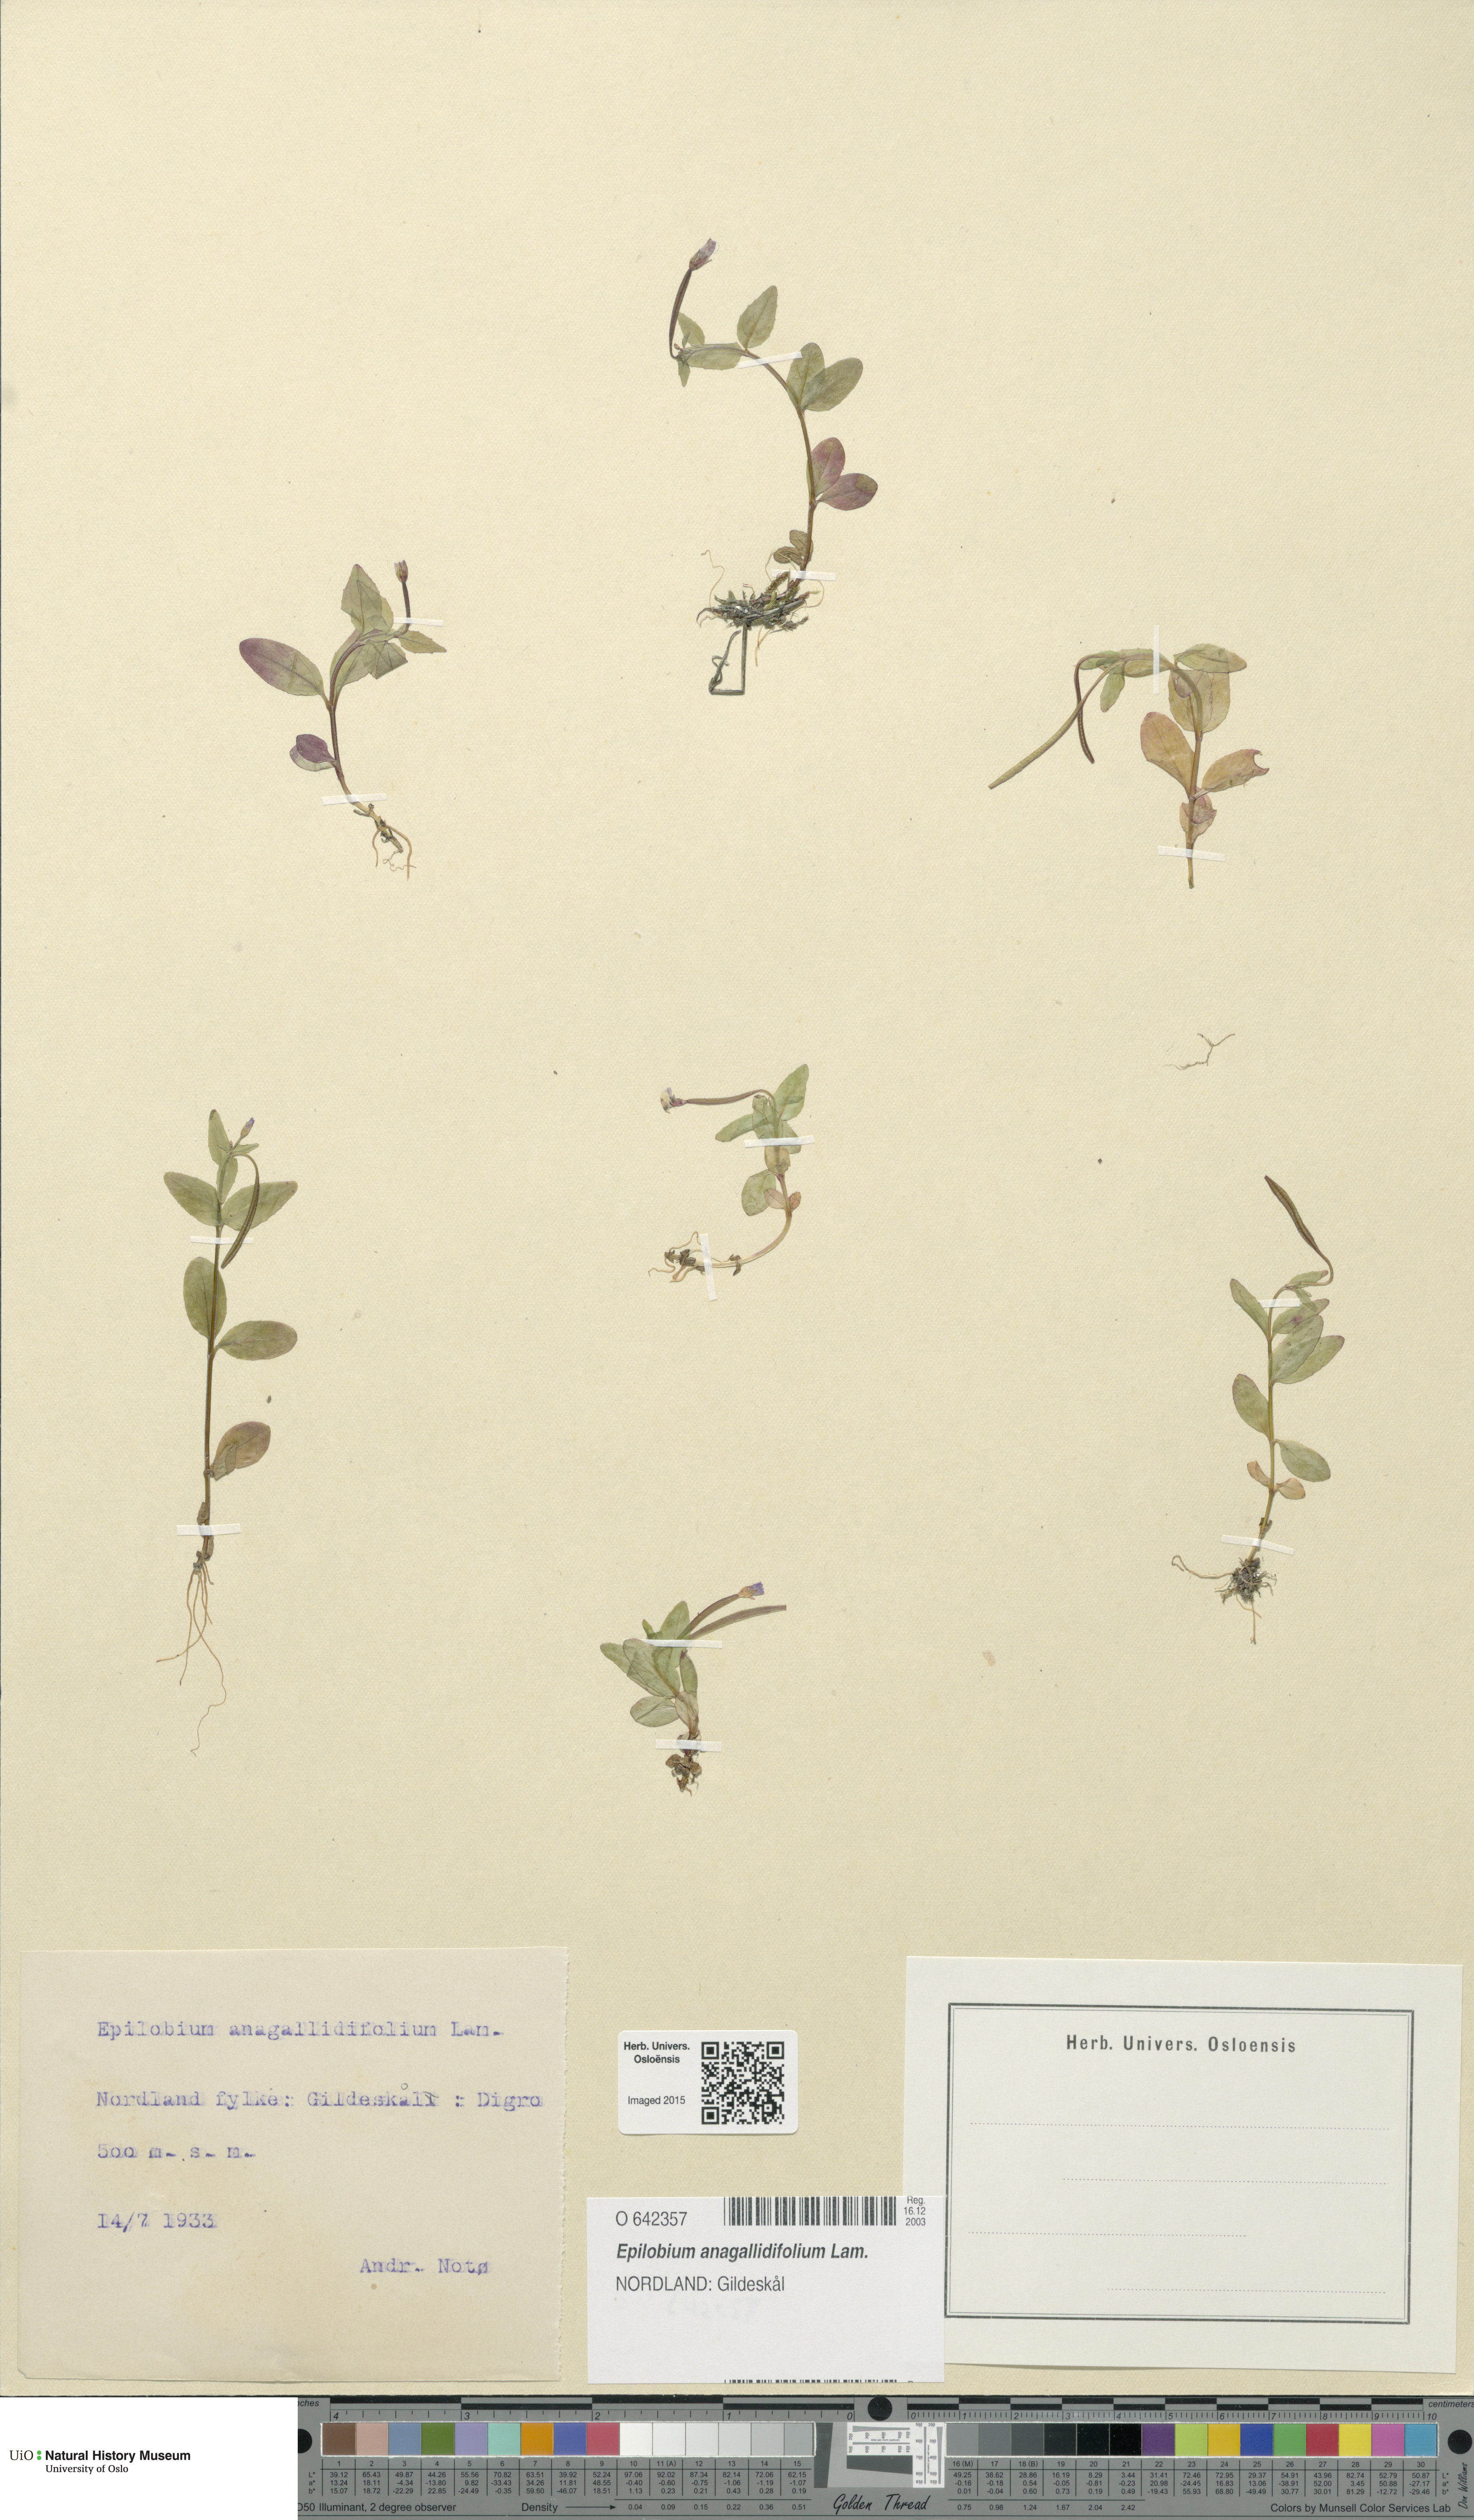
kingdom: Plantae
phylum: Tracheophyta
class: Magnoliopsida
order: Myrtales
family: Onagraceae
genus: Epilobium
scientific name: Epilobium anagallidifolium
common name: Alpine willowherb
